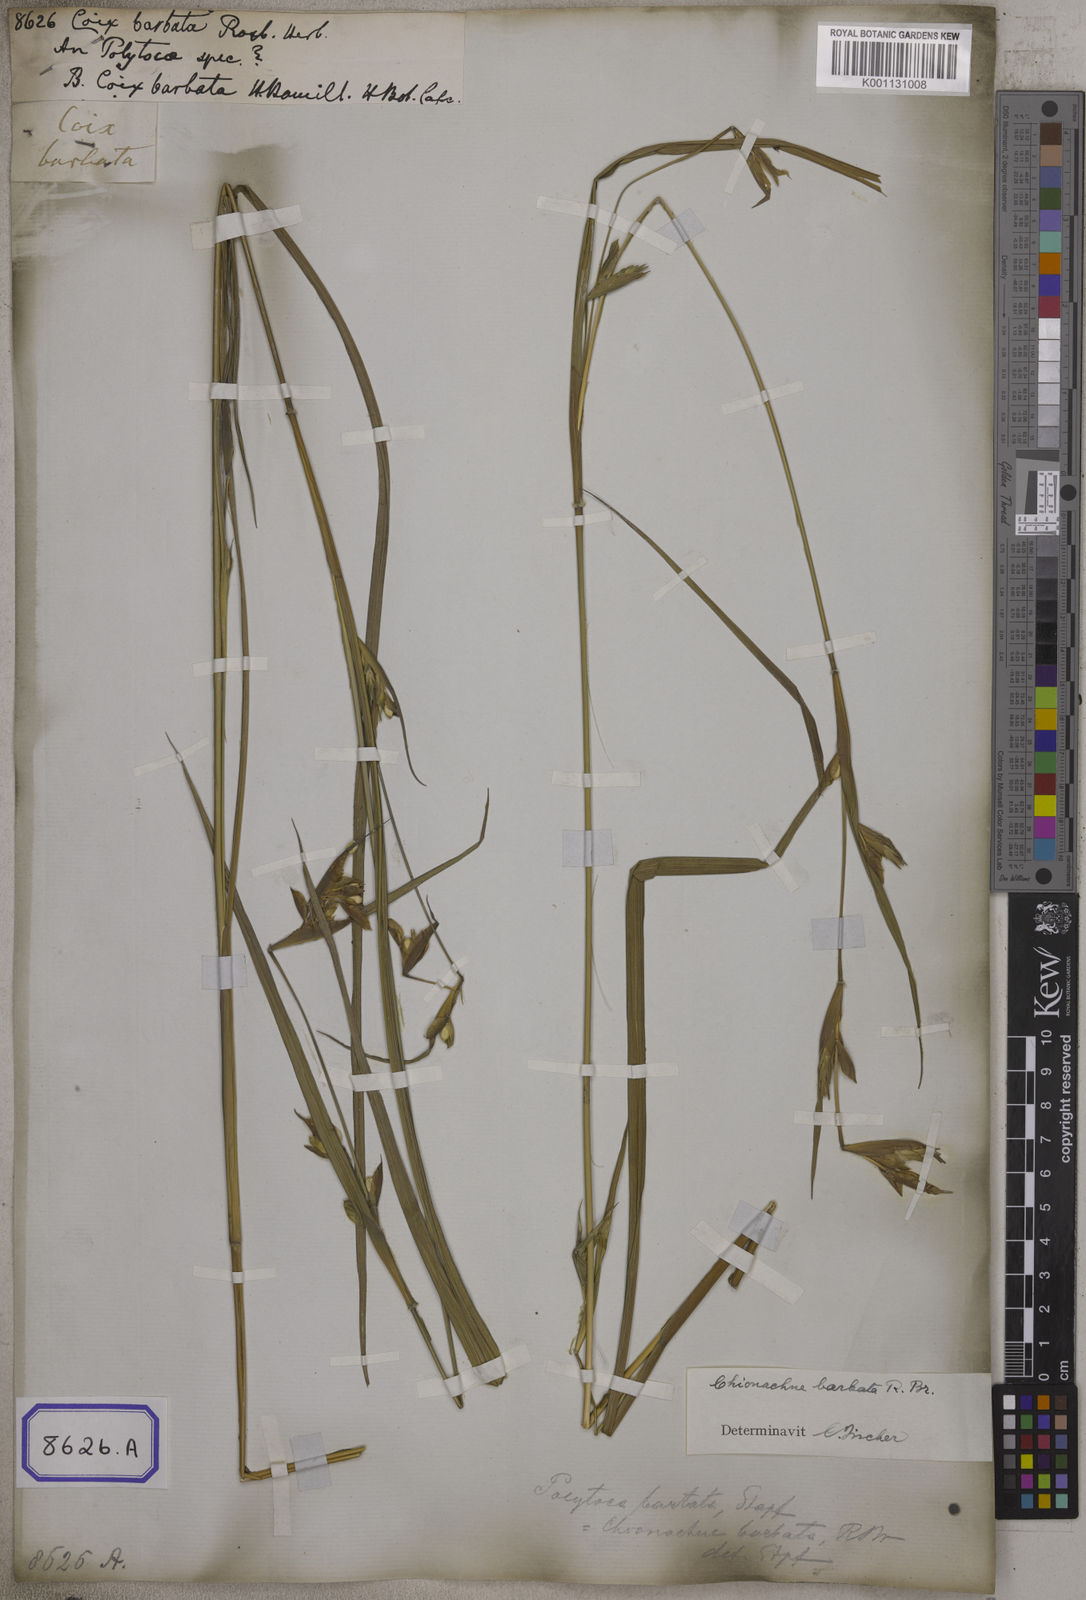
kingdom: Plantae
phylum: Tracheophyta
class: Liliopsida
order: Poales
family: Poaceae
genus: Polytoca
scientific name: Polytoca gigantea
